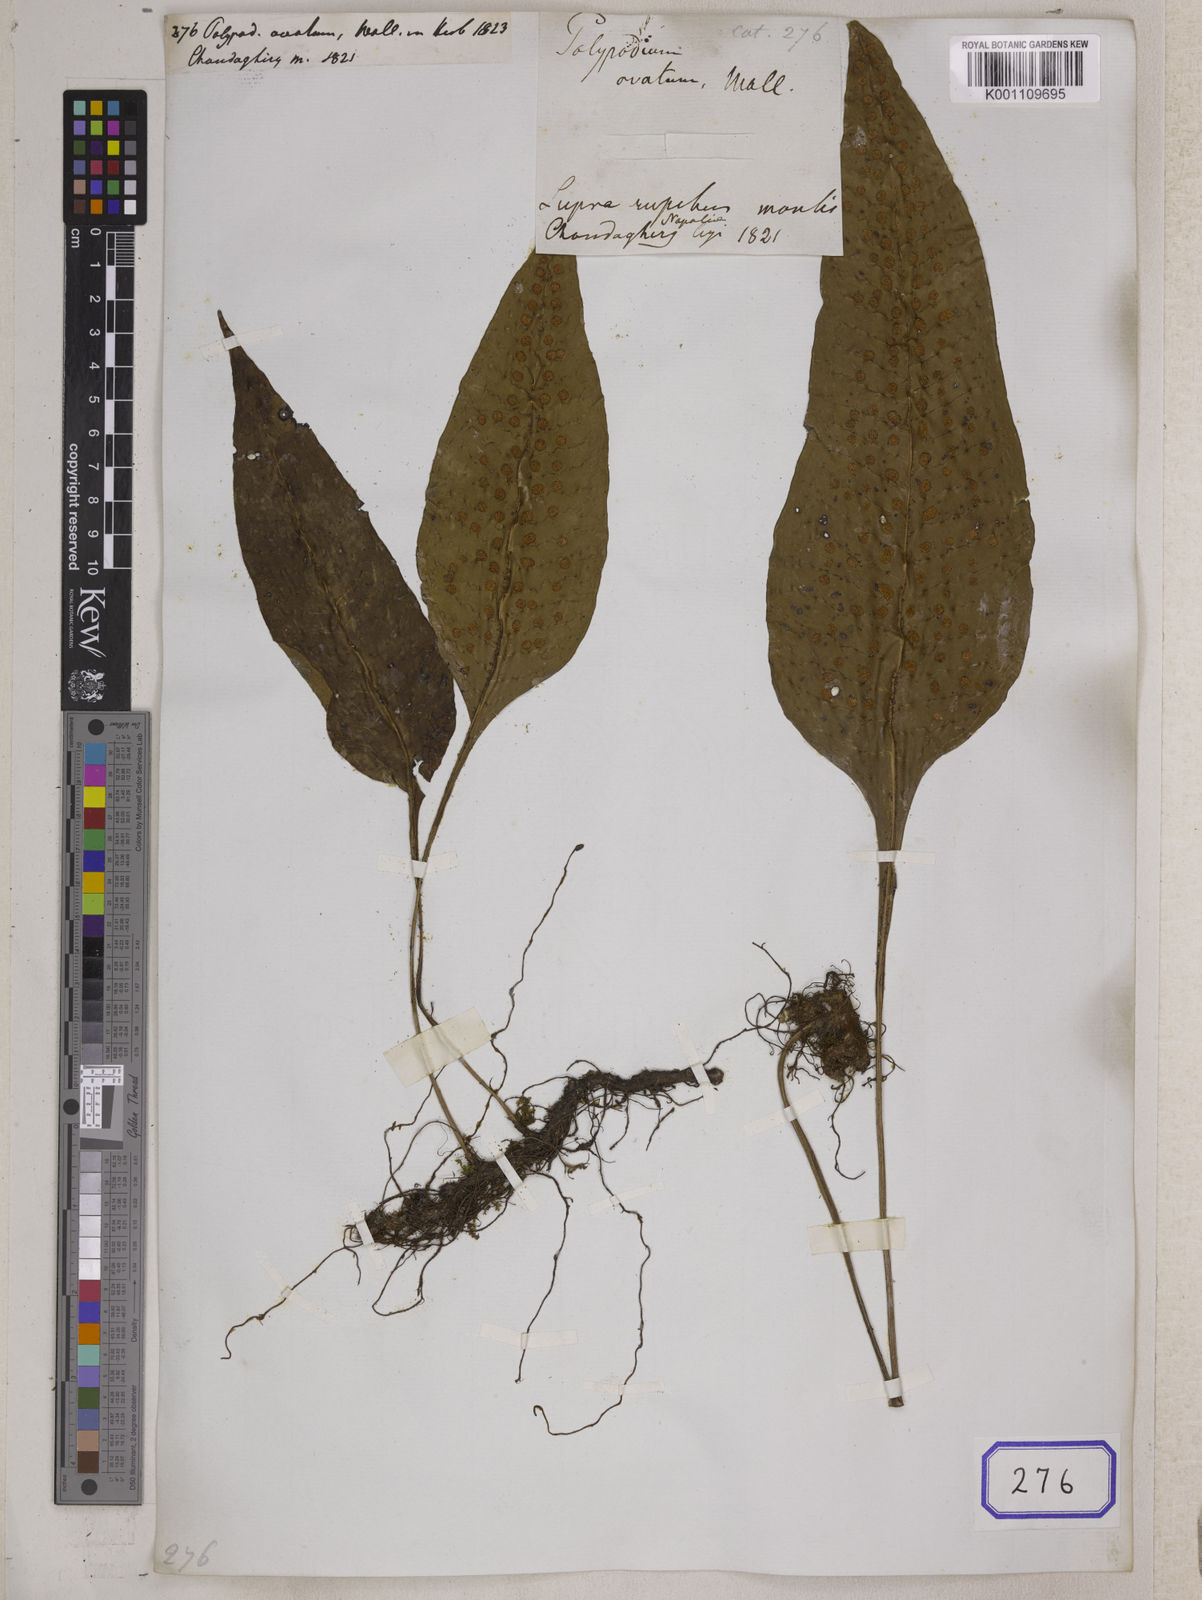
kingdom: Plantae
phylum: Tracheophyta
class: Polypodiopsida
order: Polypodiales
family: Polypodiaceae
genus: Polypodium
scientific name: Polypodium
